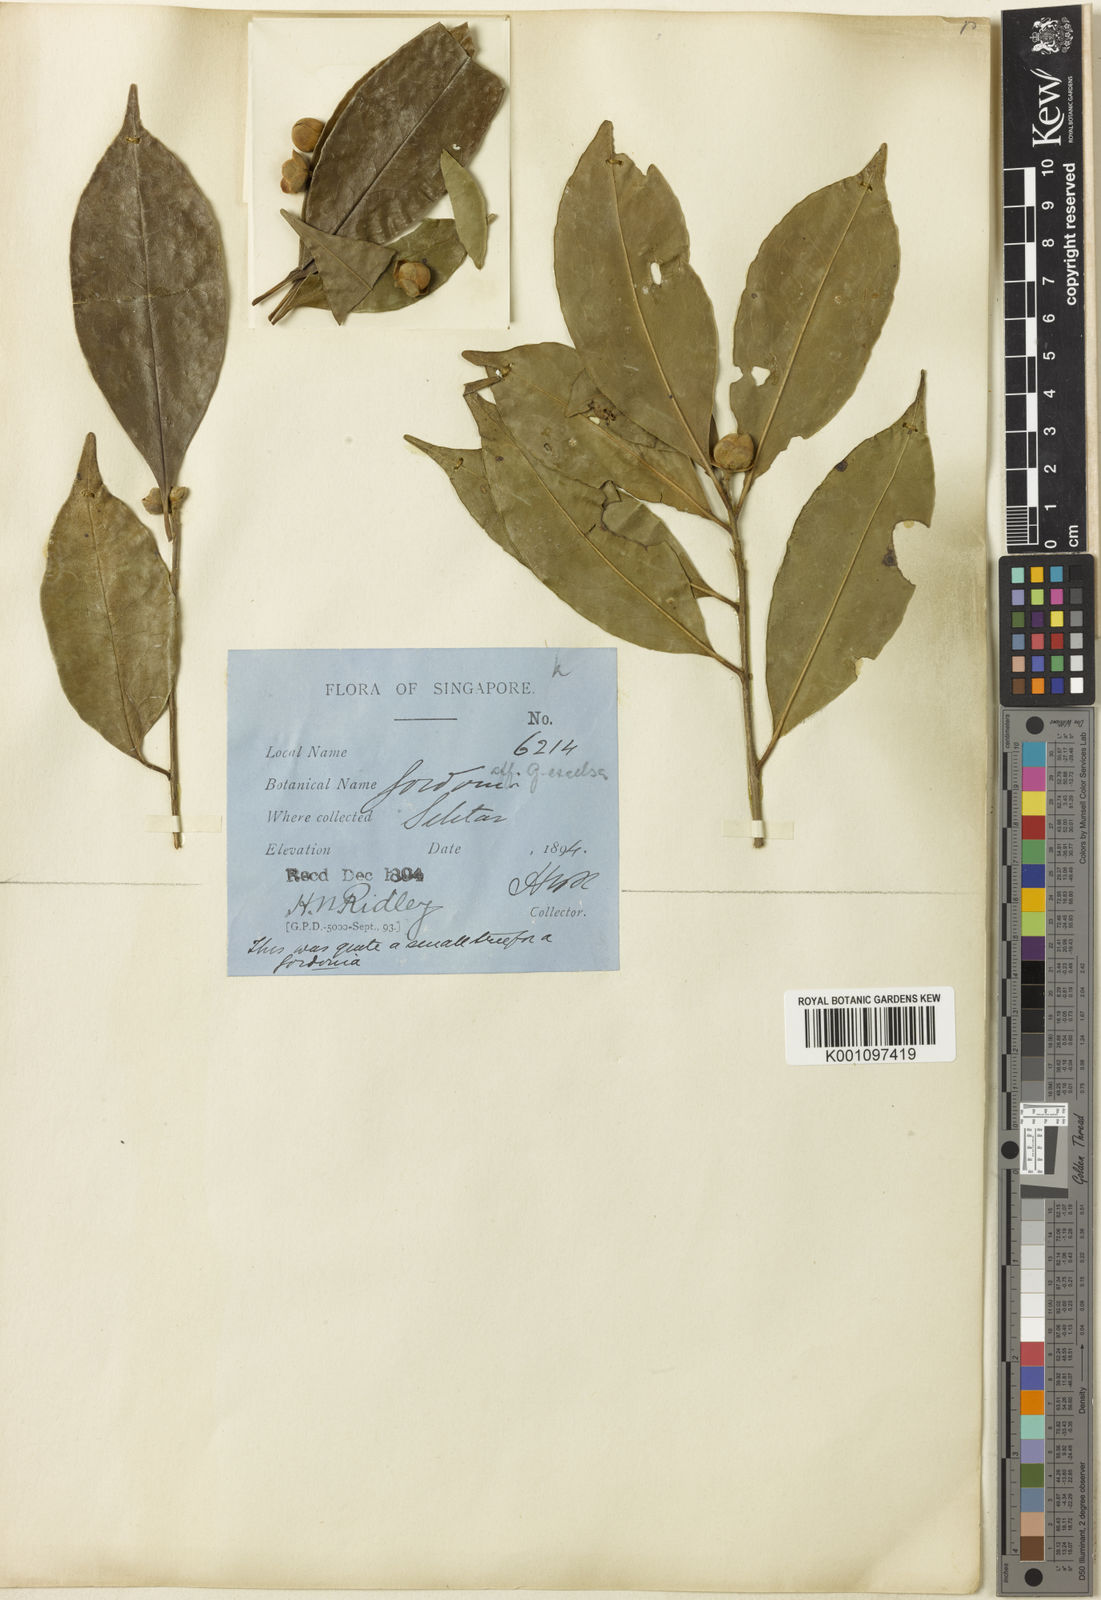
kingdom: Plantae
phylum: Tracheophyta
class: Magnoliopsida
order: Ericales
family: Theaceae
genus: Polyspora
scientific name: Polyspora penangensis
